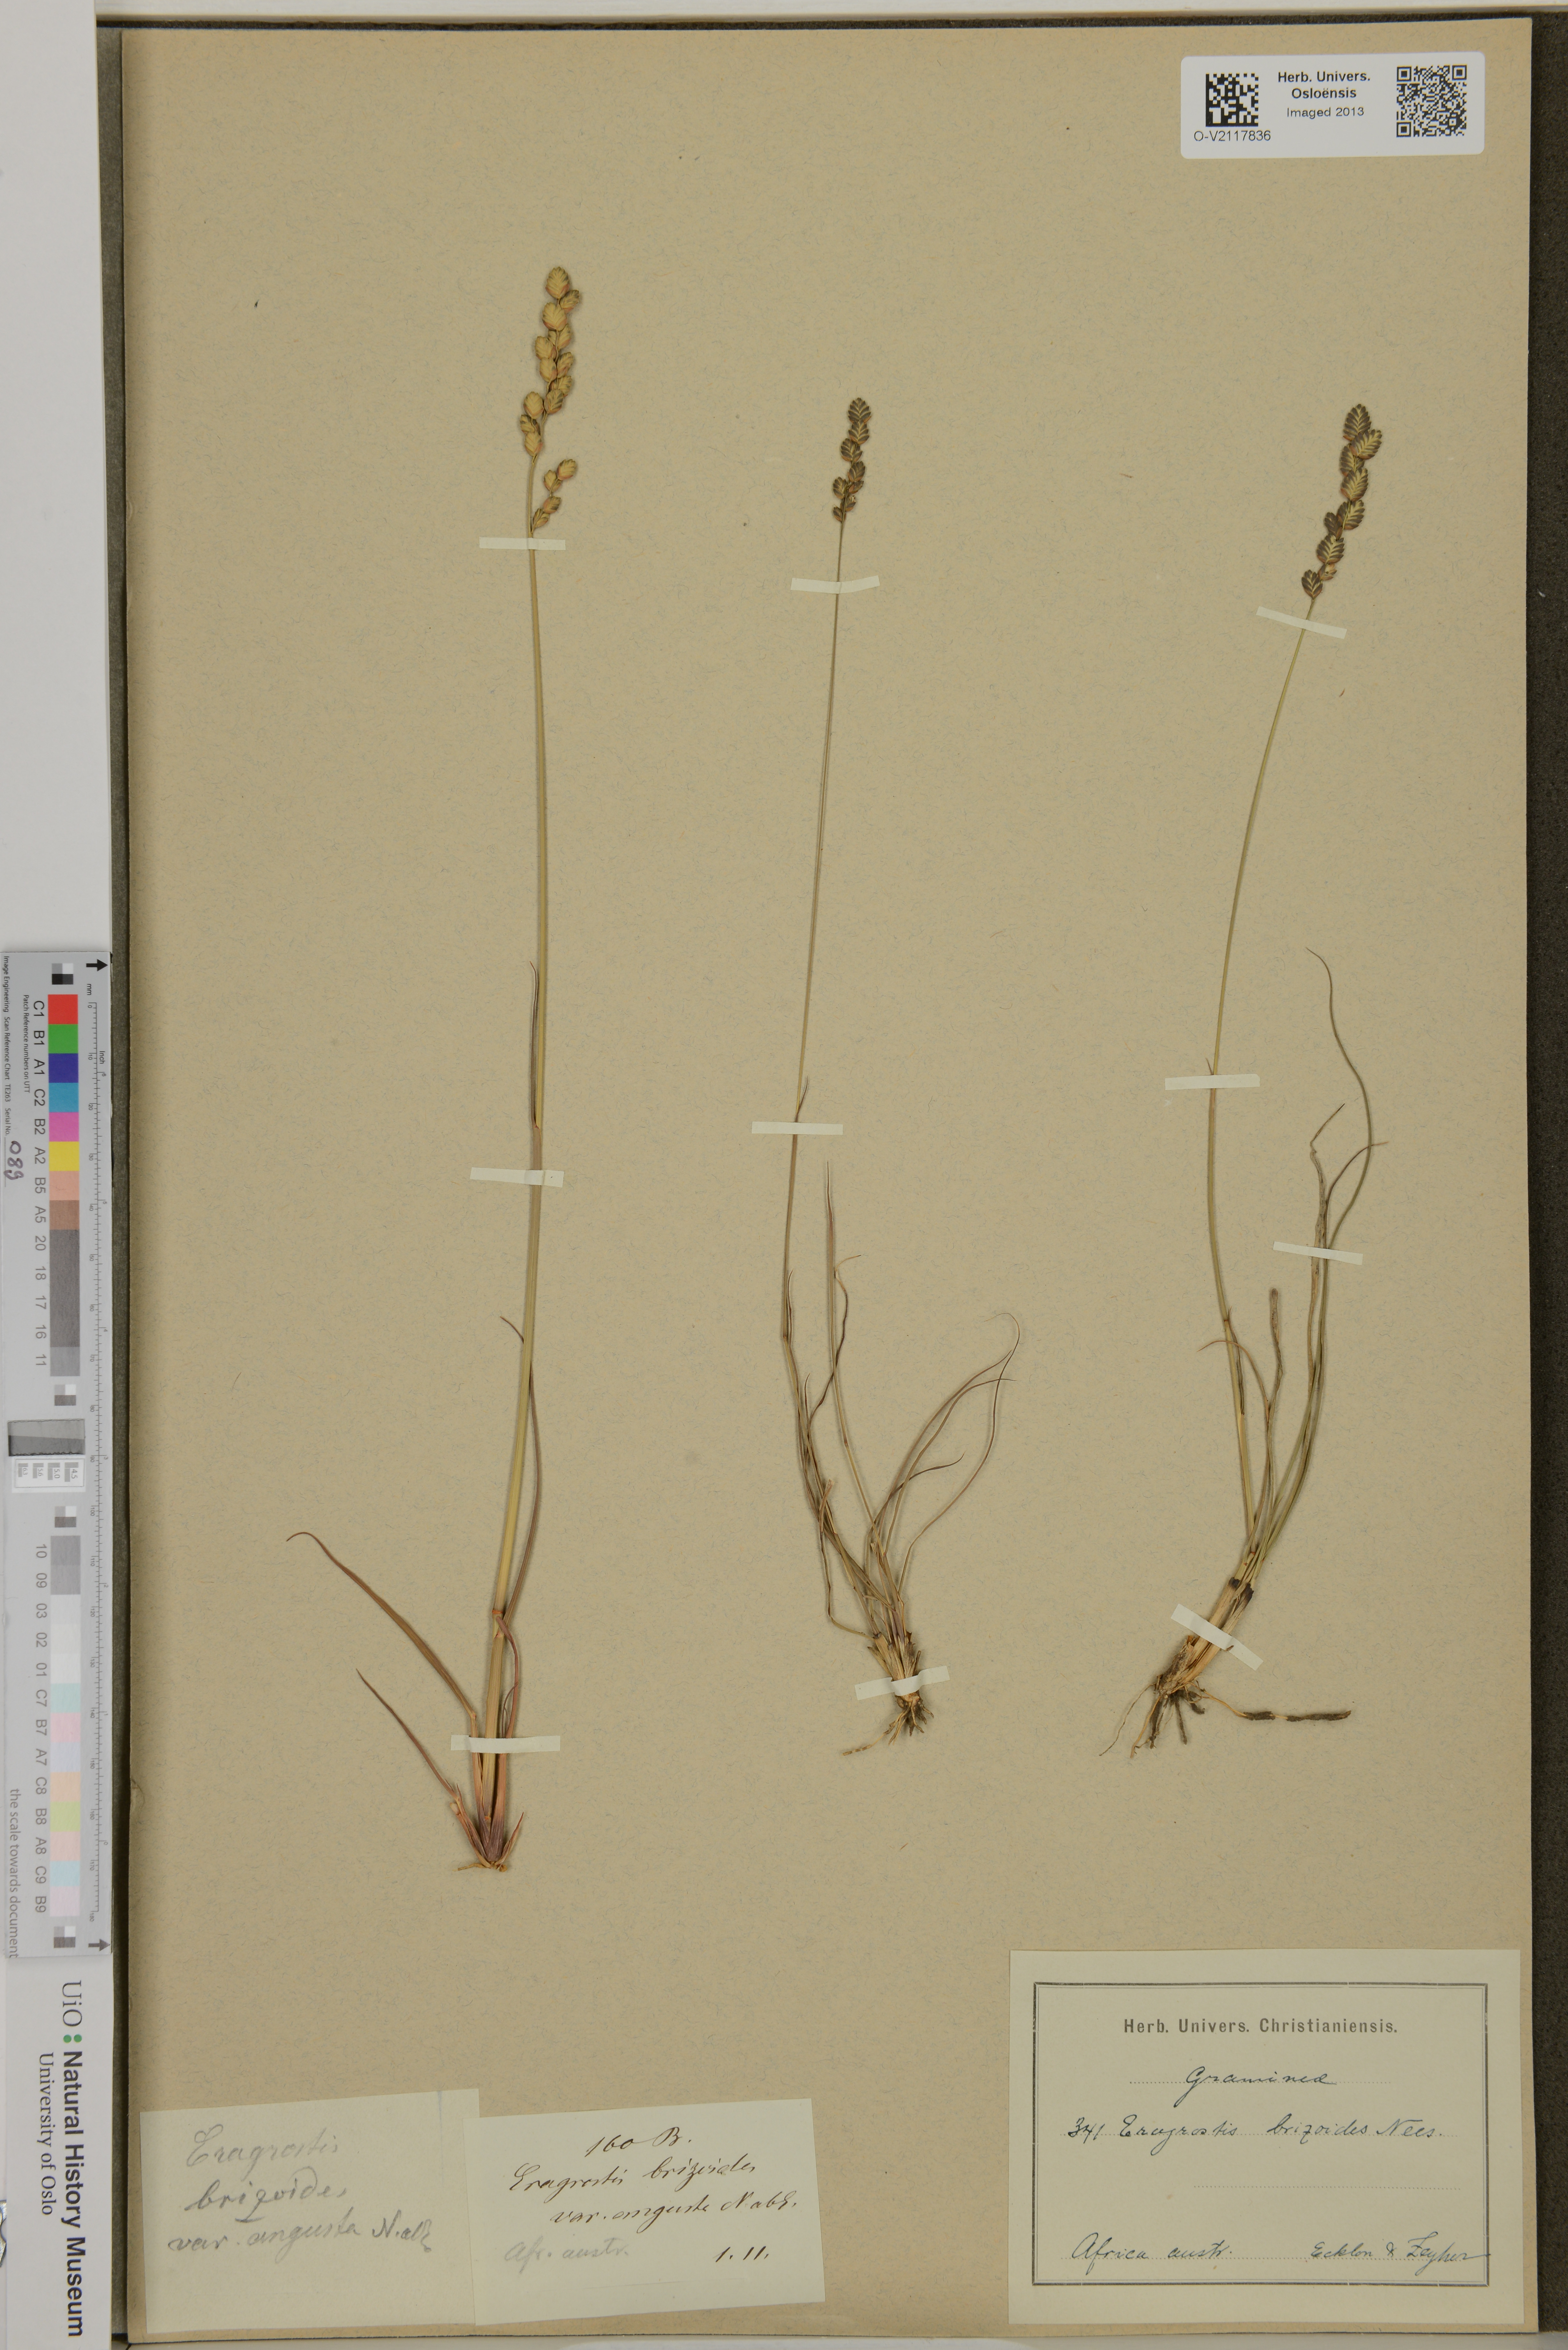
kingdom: Plantae
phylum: Tracheophyta
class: Liliopsida
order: Poales
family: Poaceae
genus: Eragrostis
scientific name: Eragrostis
